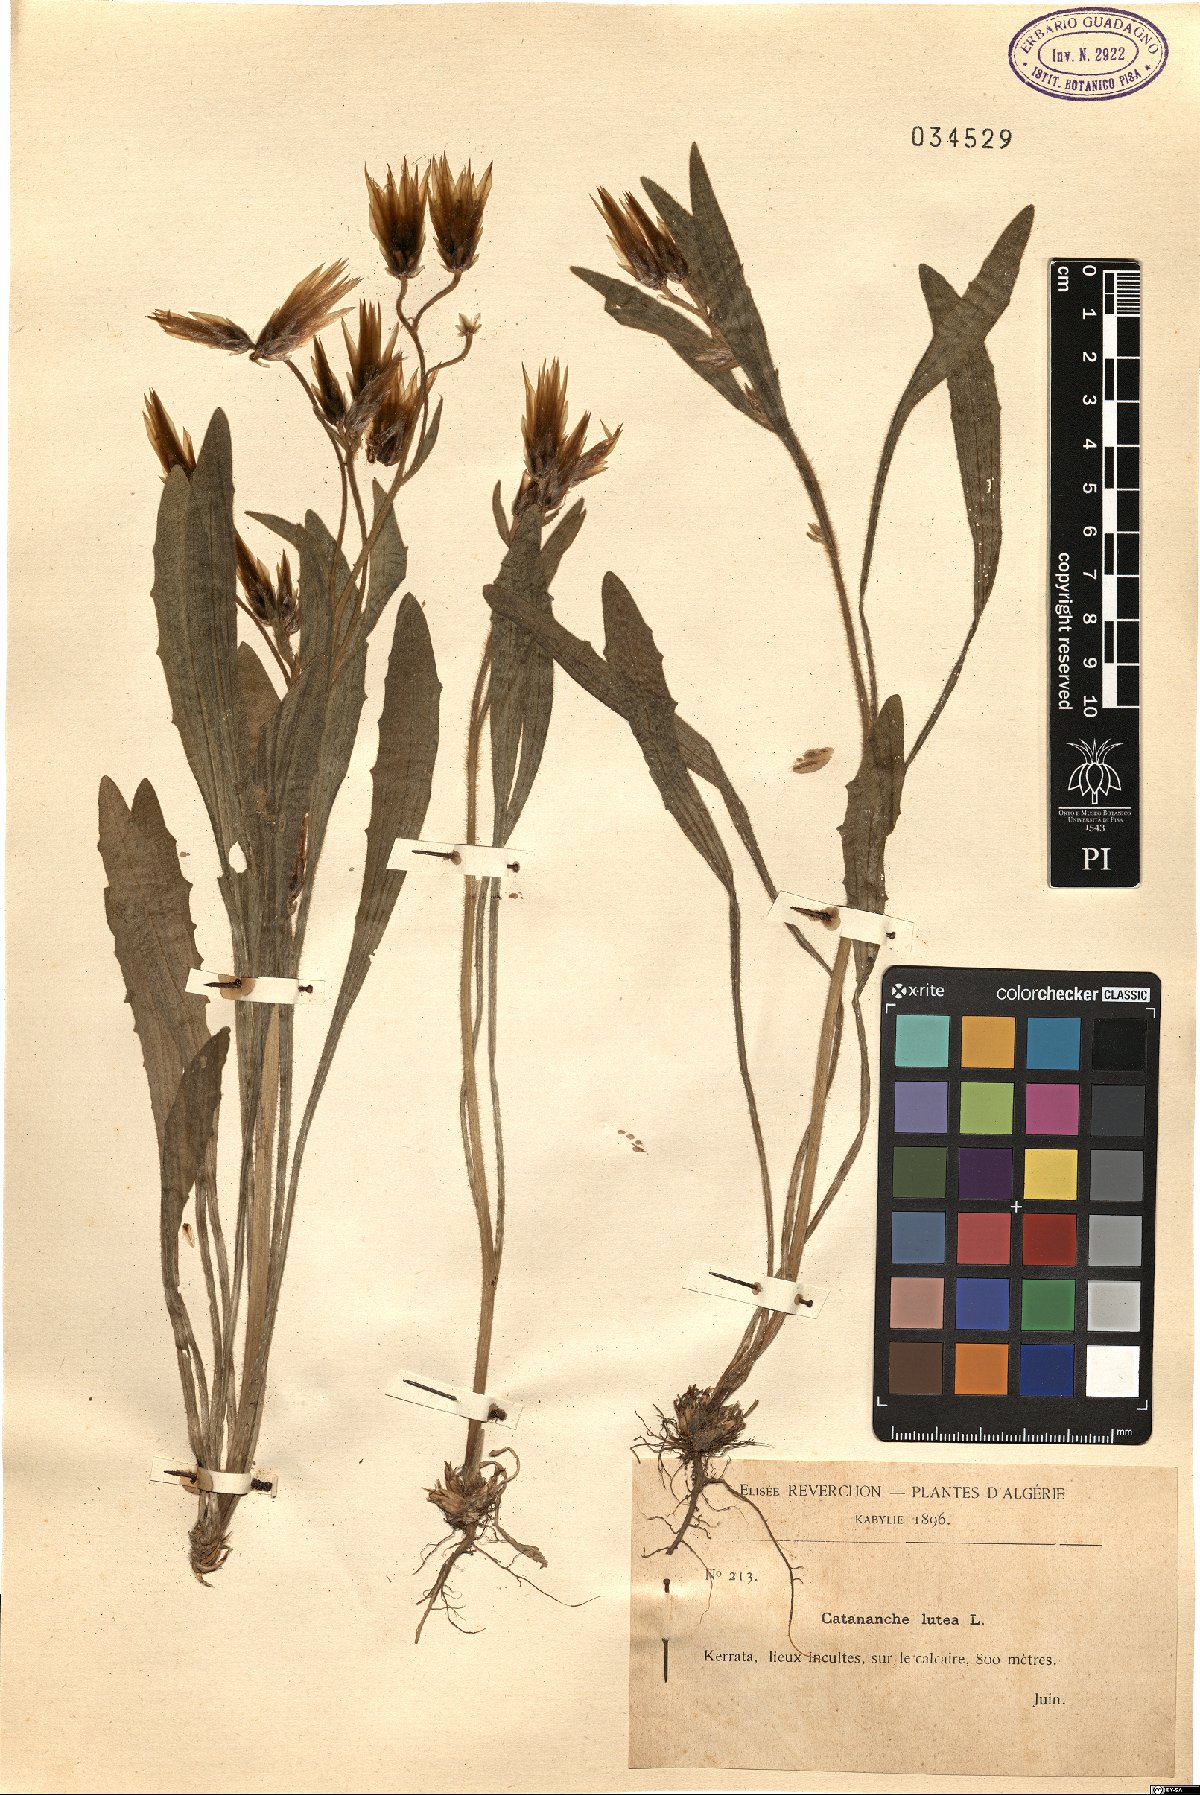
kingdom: Plantae
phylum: Tracheophyta
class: Magnoliopsida
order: Asterales
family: Asteraceae
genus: Catananche
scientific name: Catananche lutea
